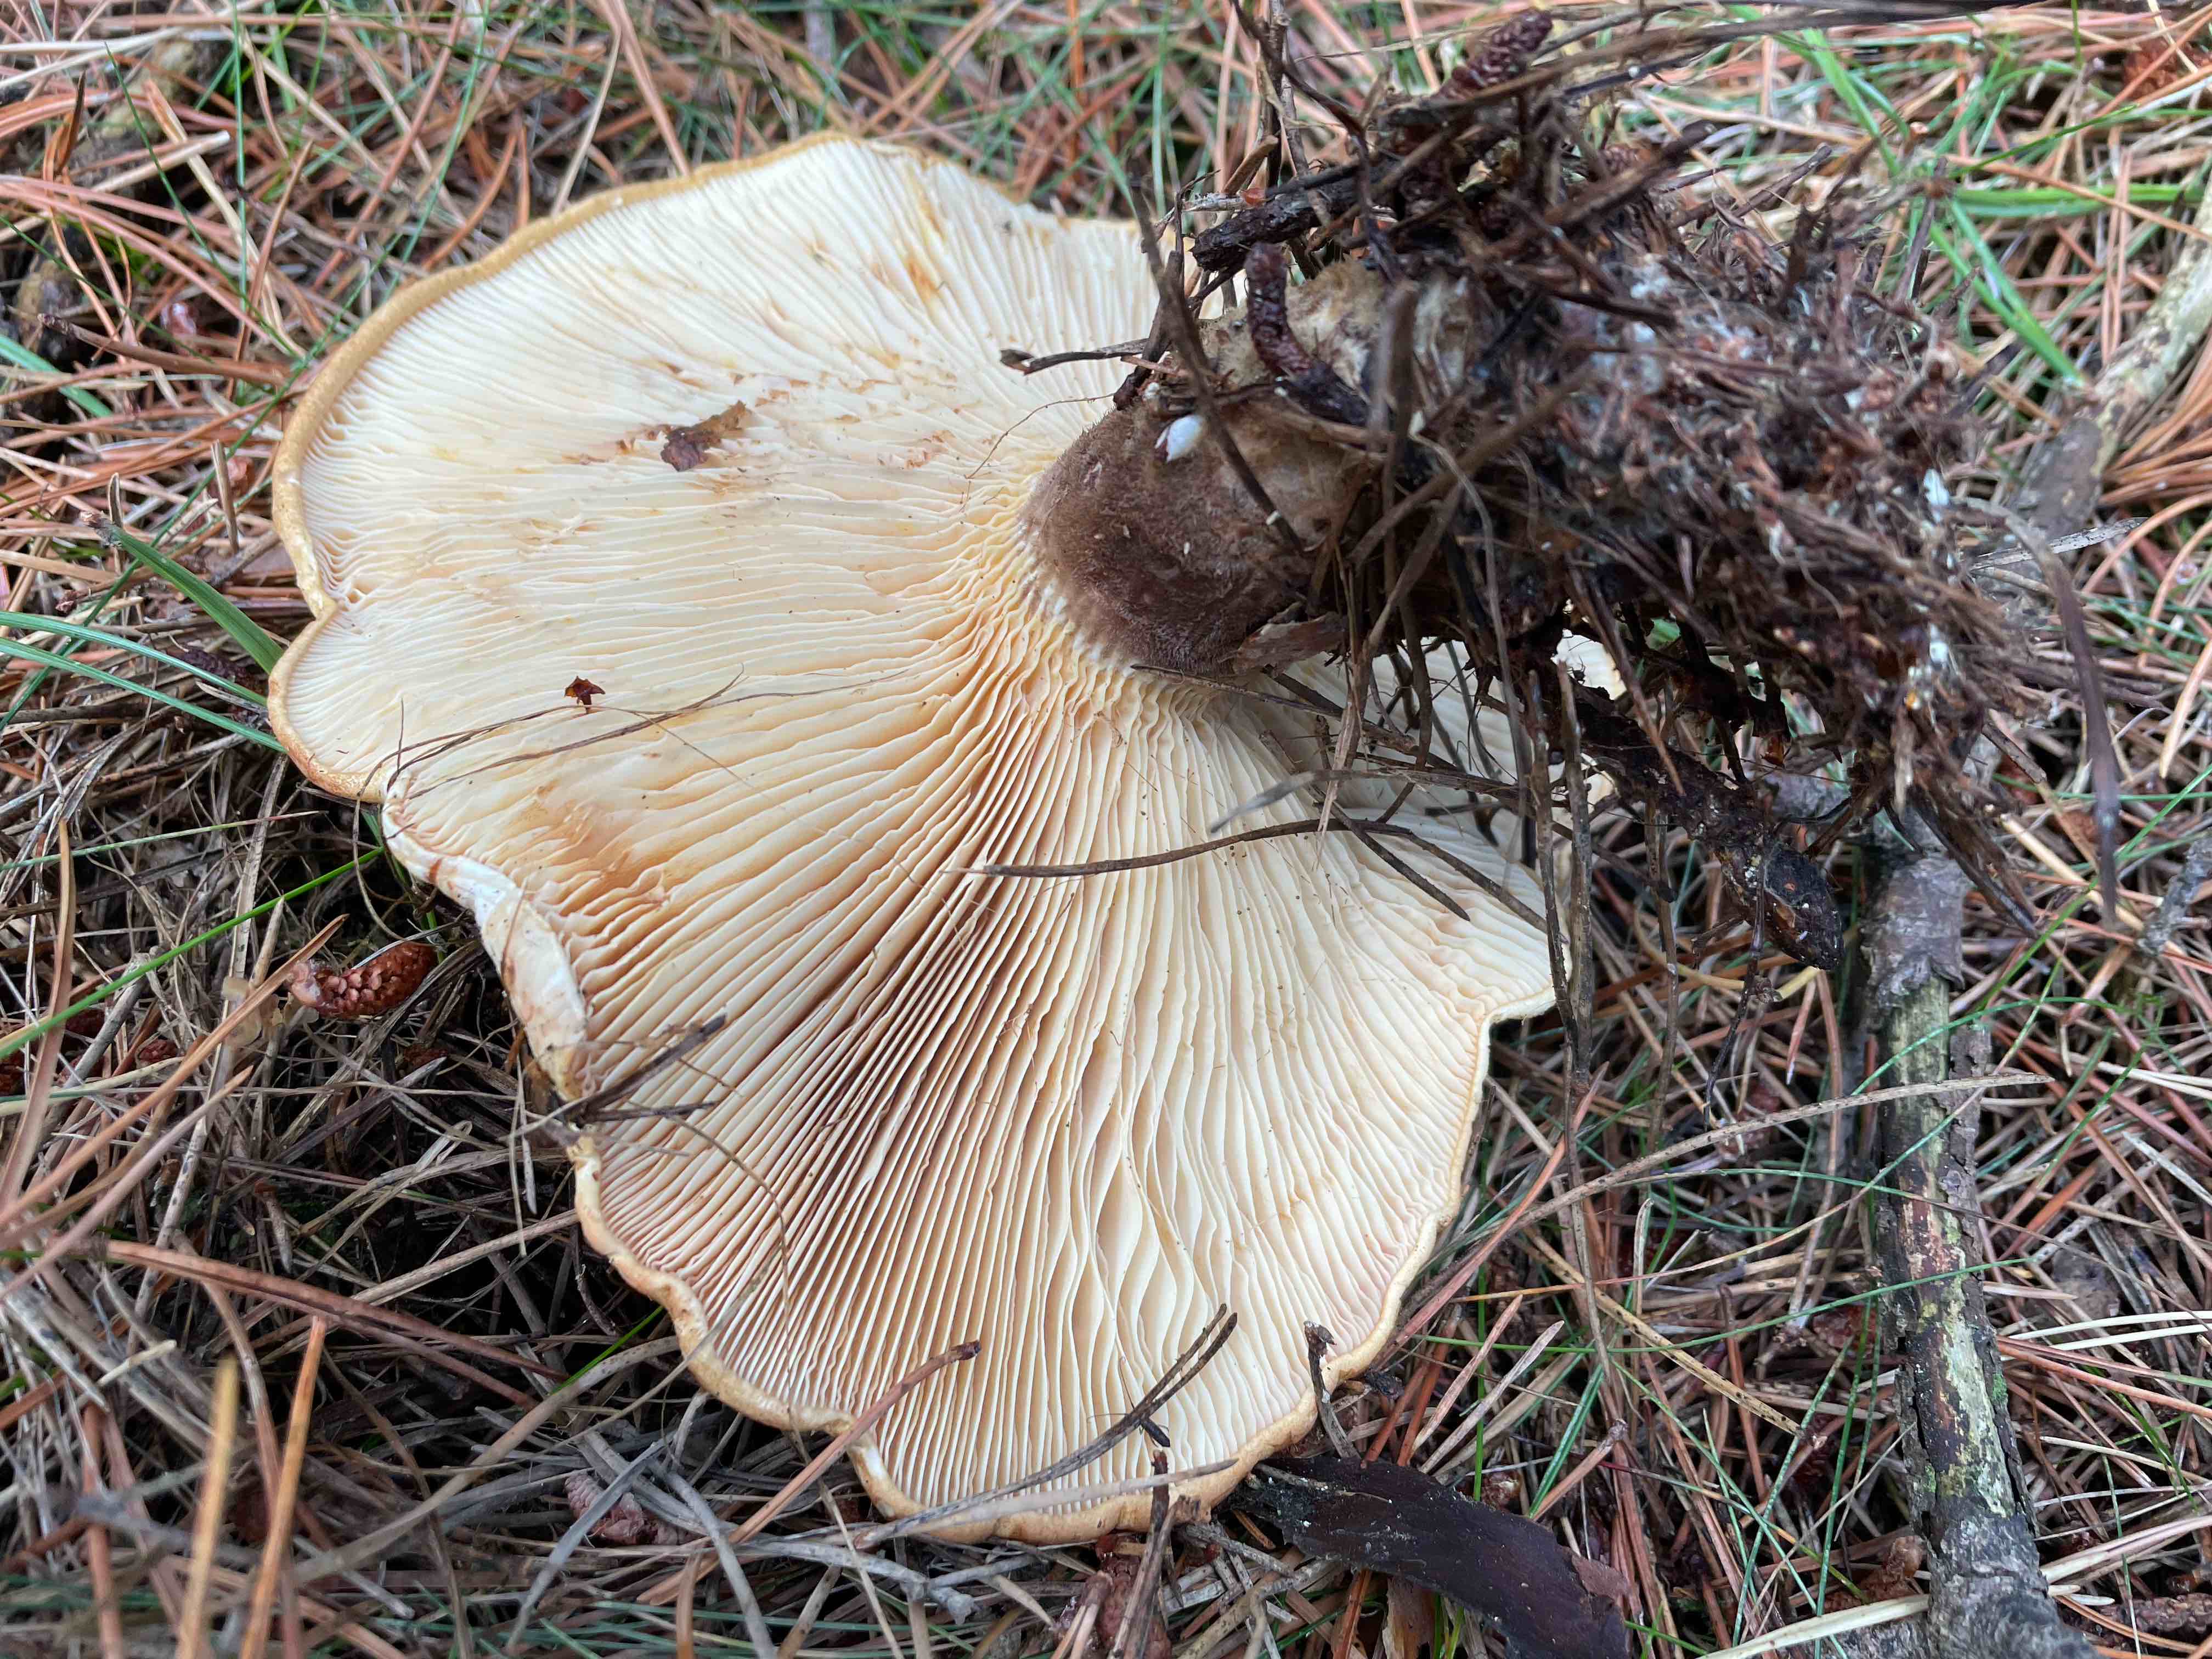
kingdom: Fungi
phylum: Basidiomycota
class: Agaricomycetes
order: Boletales
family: Tapinellaceae
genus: Tapinella
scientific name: Tapinella atrotomentosa
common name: sortfiltet viftesvamp
